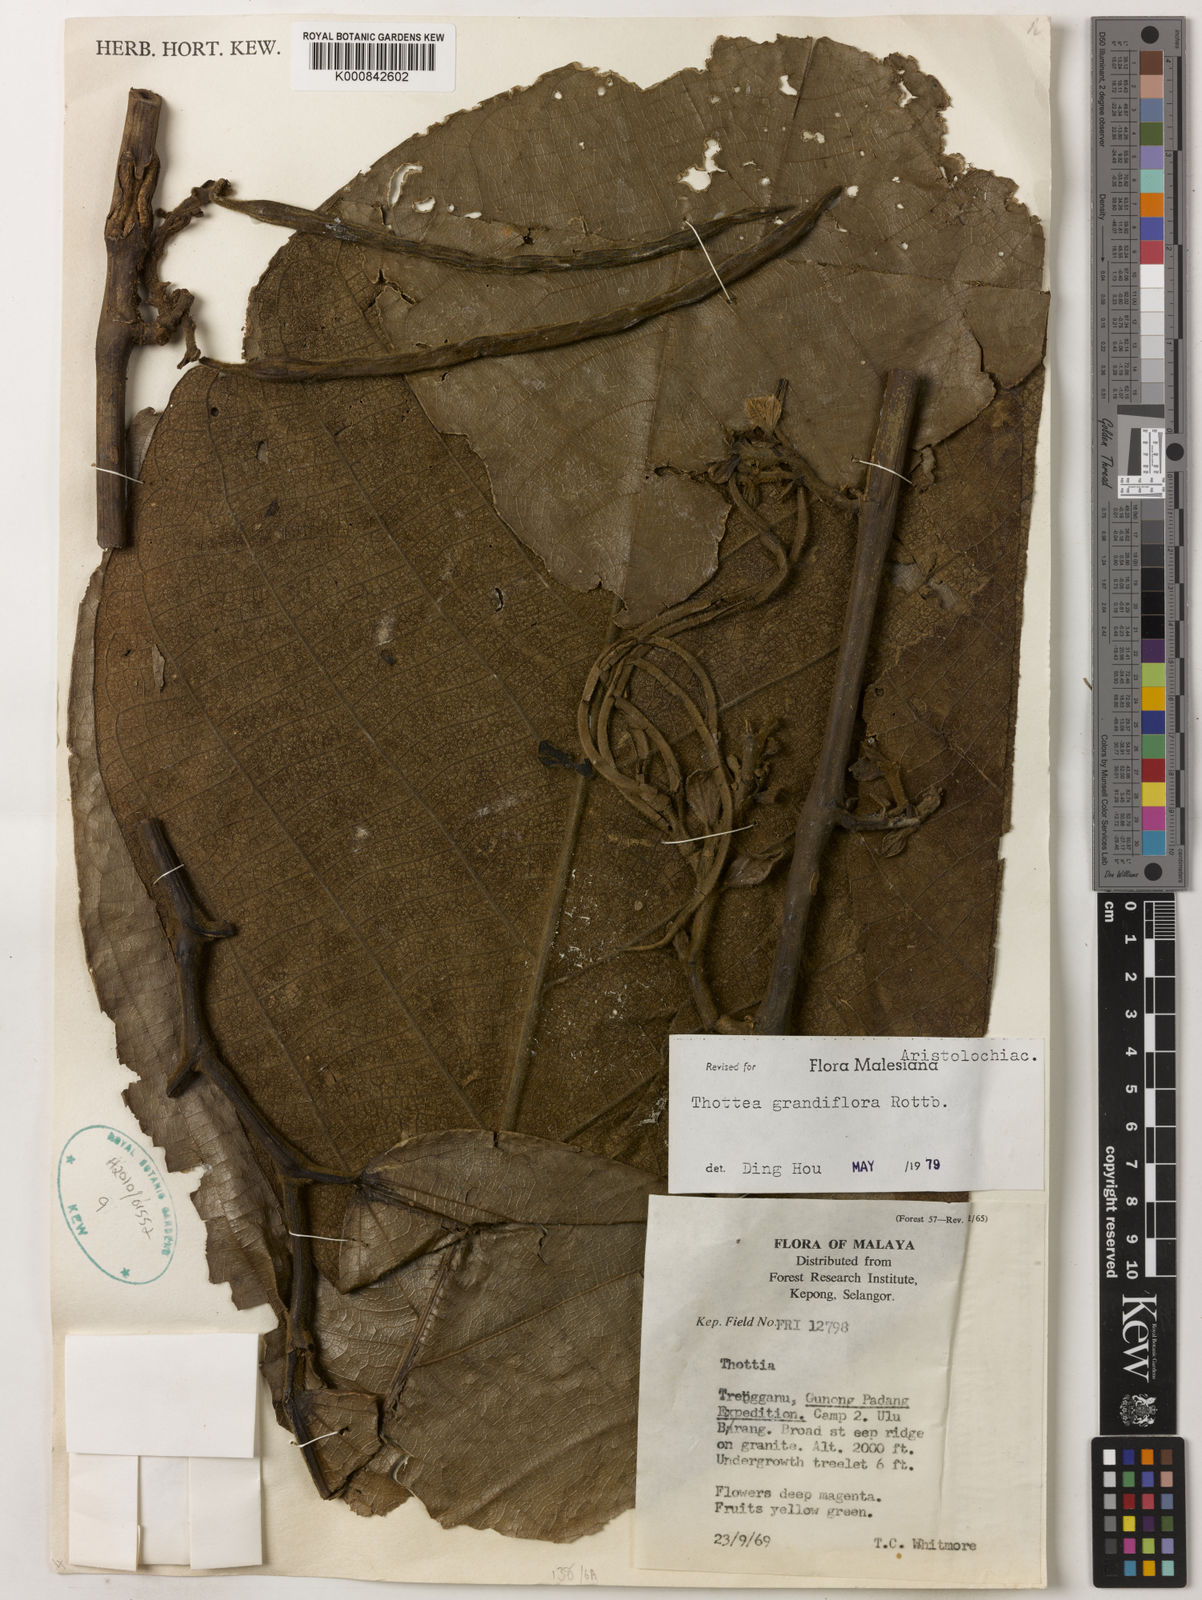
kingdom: Plantae
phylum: Tracheophyta
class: Magnoliopsida
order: Piperales
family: Aristolochiaceae
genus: Thottea
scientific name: Thottea grandiflora
